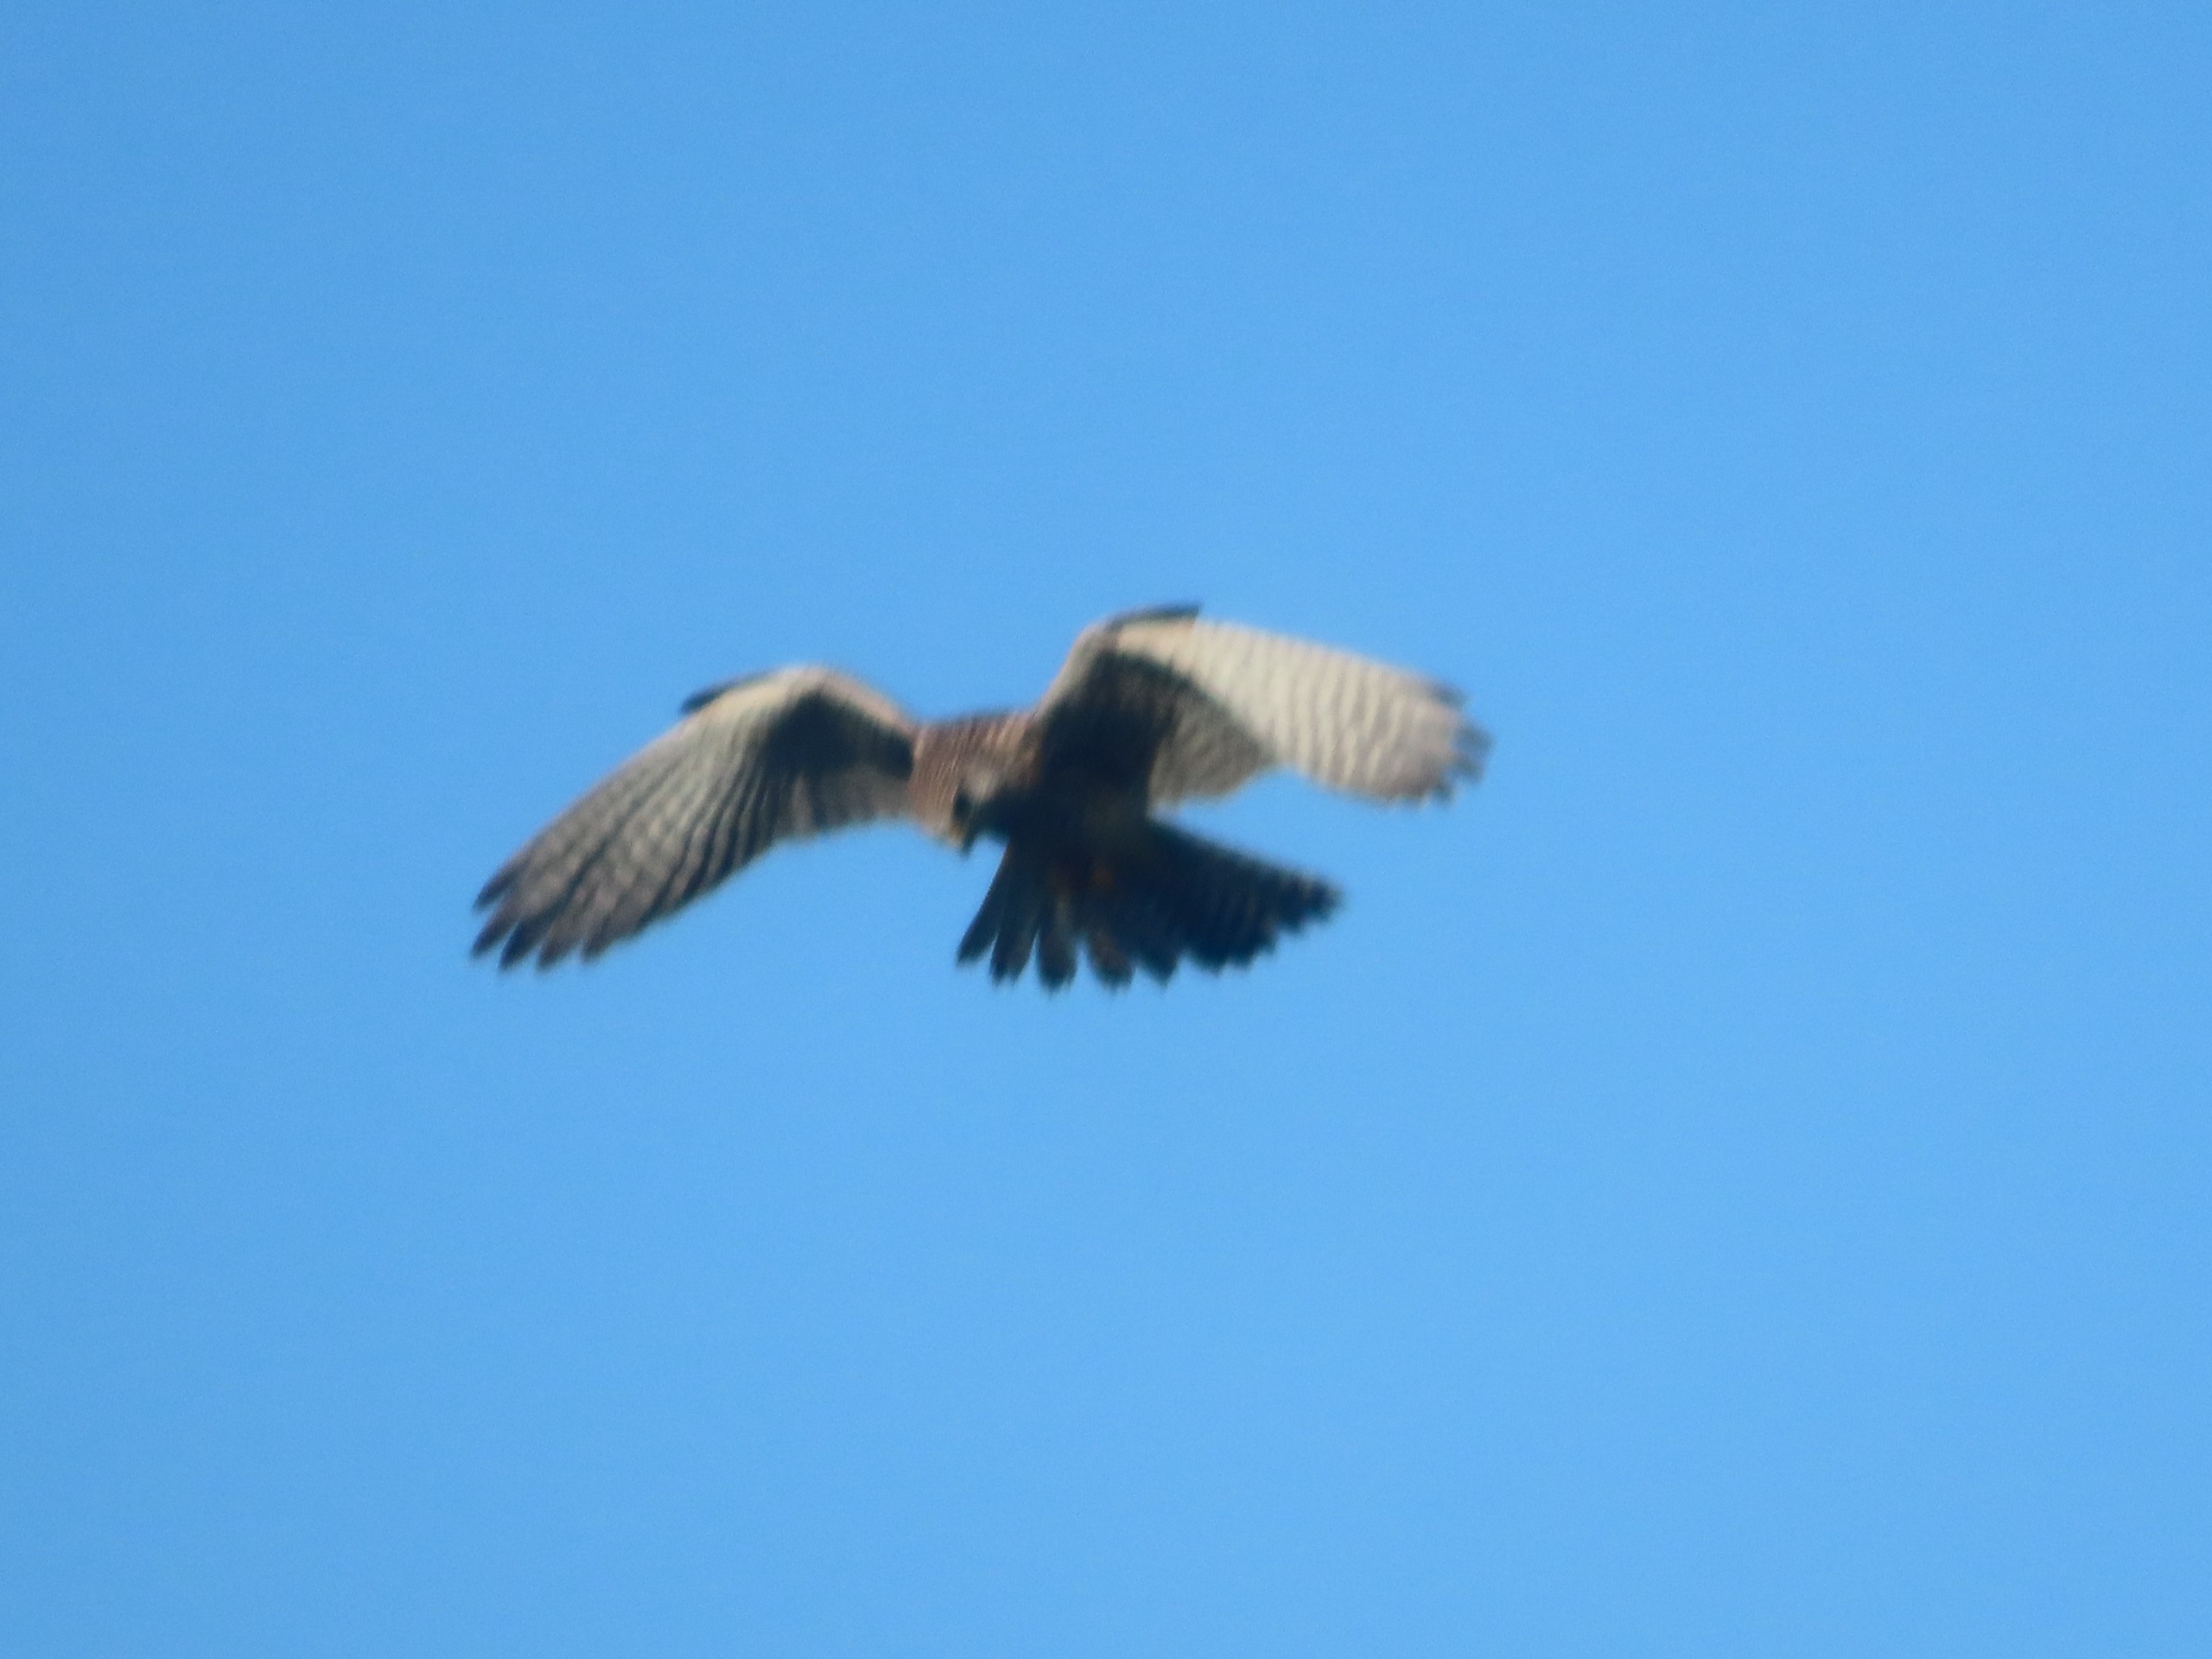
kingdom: Animalia
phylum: Chordata
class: Aves
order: Falconiformes
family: Falconidae
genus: Falco
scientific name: Falco tinnunculus
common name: Tårnfalk
